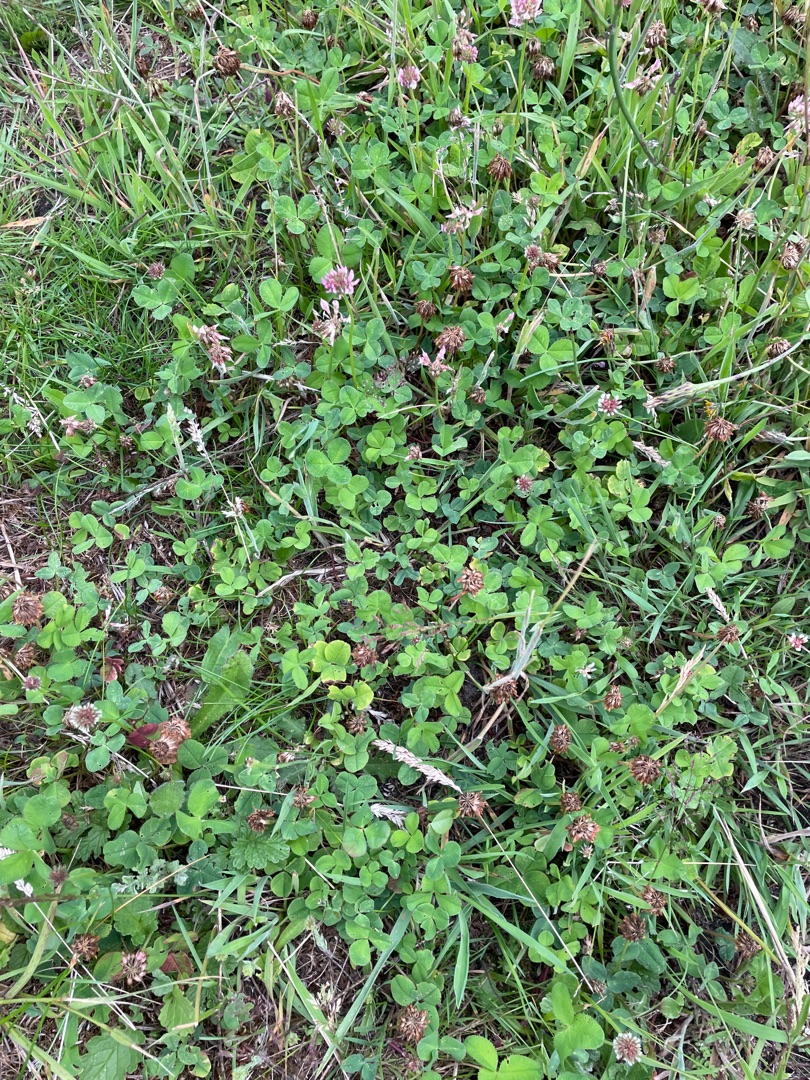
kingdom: Plantae
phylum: Tracheophyta
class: Magnoliopsida
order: Fabales
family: Fabaceae
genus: Trifolium
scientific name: Trifolium repens
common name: Hvid-kløver
